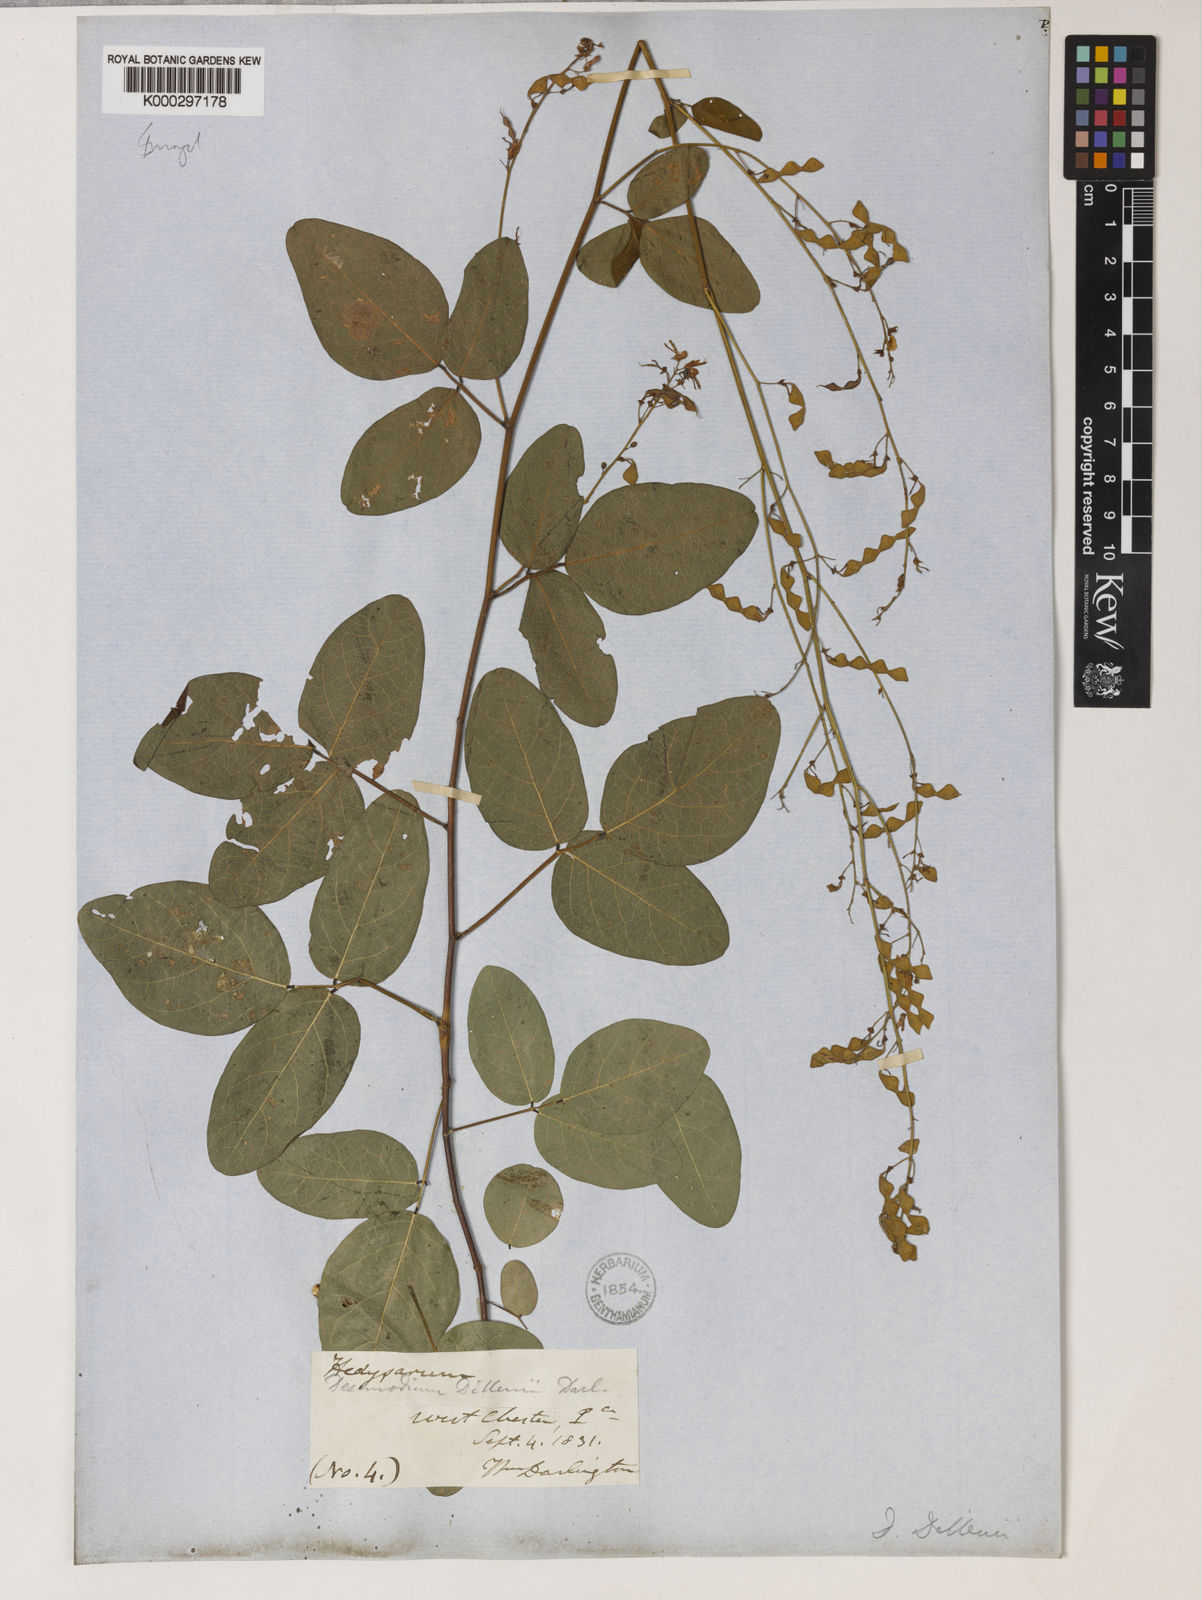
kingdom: Plantae
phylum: Tracheophyta
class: Magnoliopsida
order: Fabales
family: Fabaceae
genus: Desmodium
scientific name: Desmodium perplexum
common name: Perplexed tick trefoil
